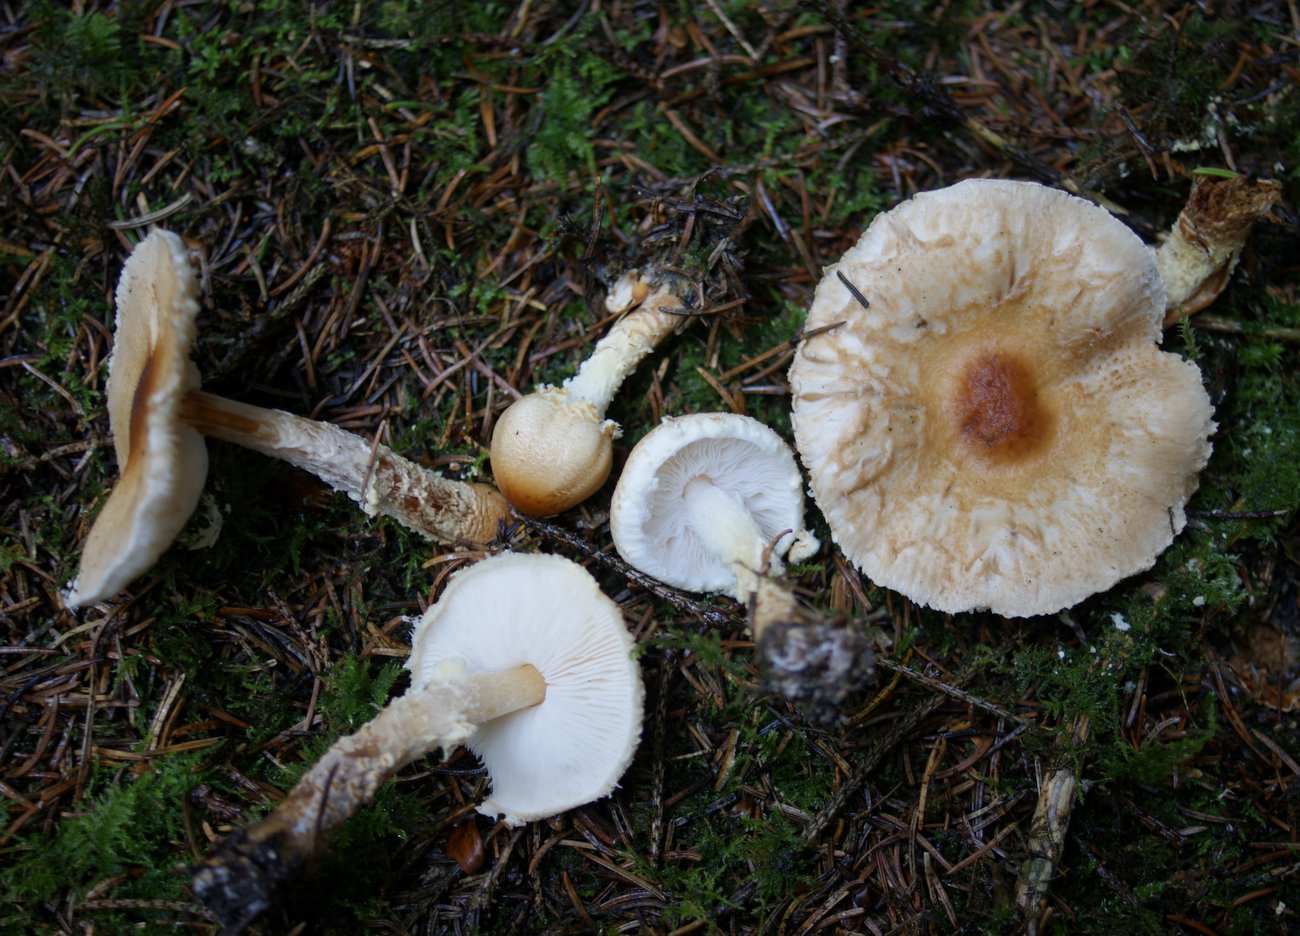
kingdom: Fungi
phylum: Basidiomycota
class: Agaricomycetes
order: Agaricales
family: Agaricaceae
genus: Lepiota
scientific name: Lepiota magnispora
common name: gulfnugget parasolhat
